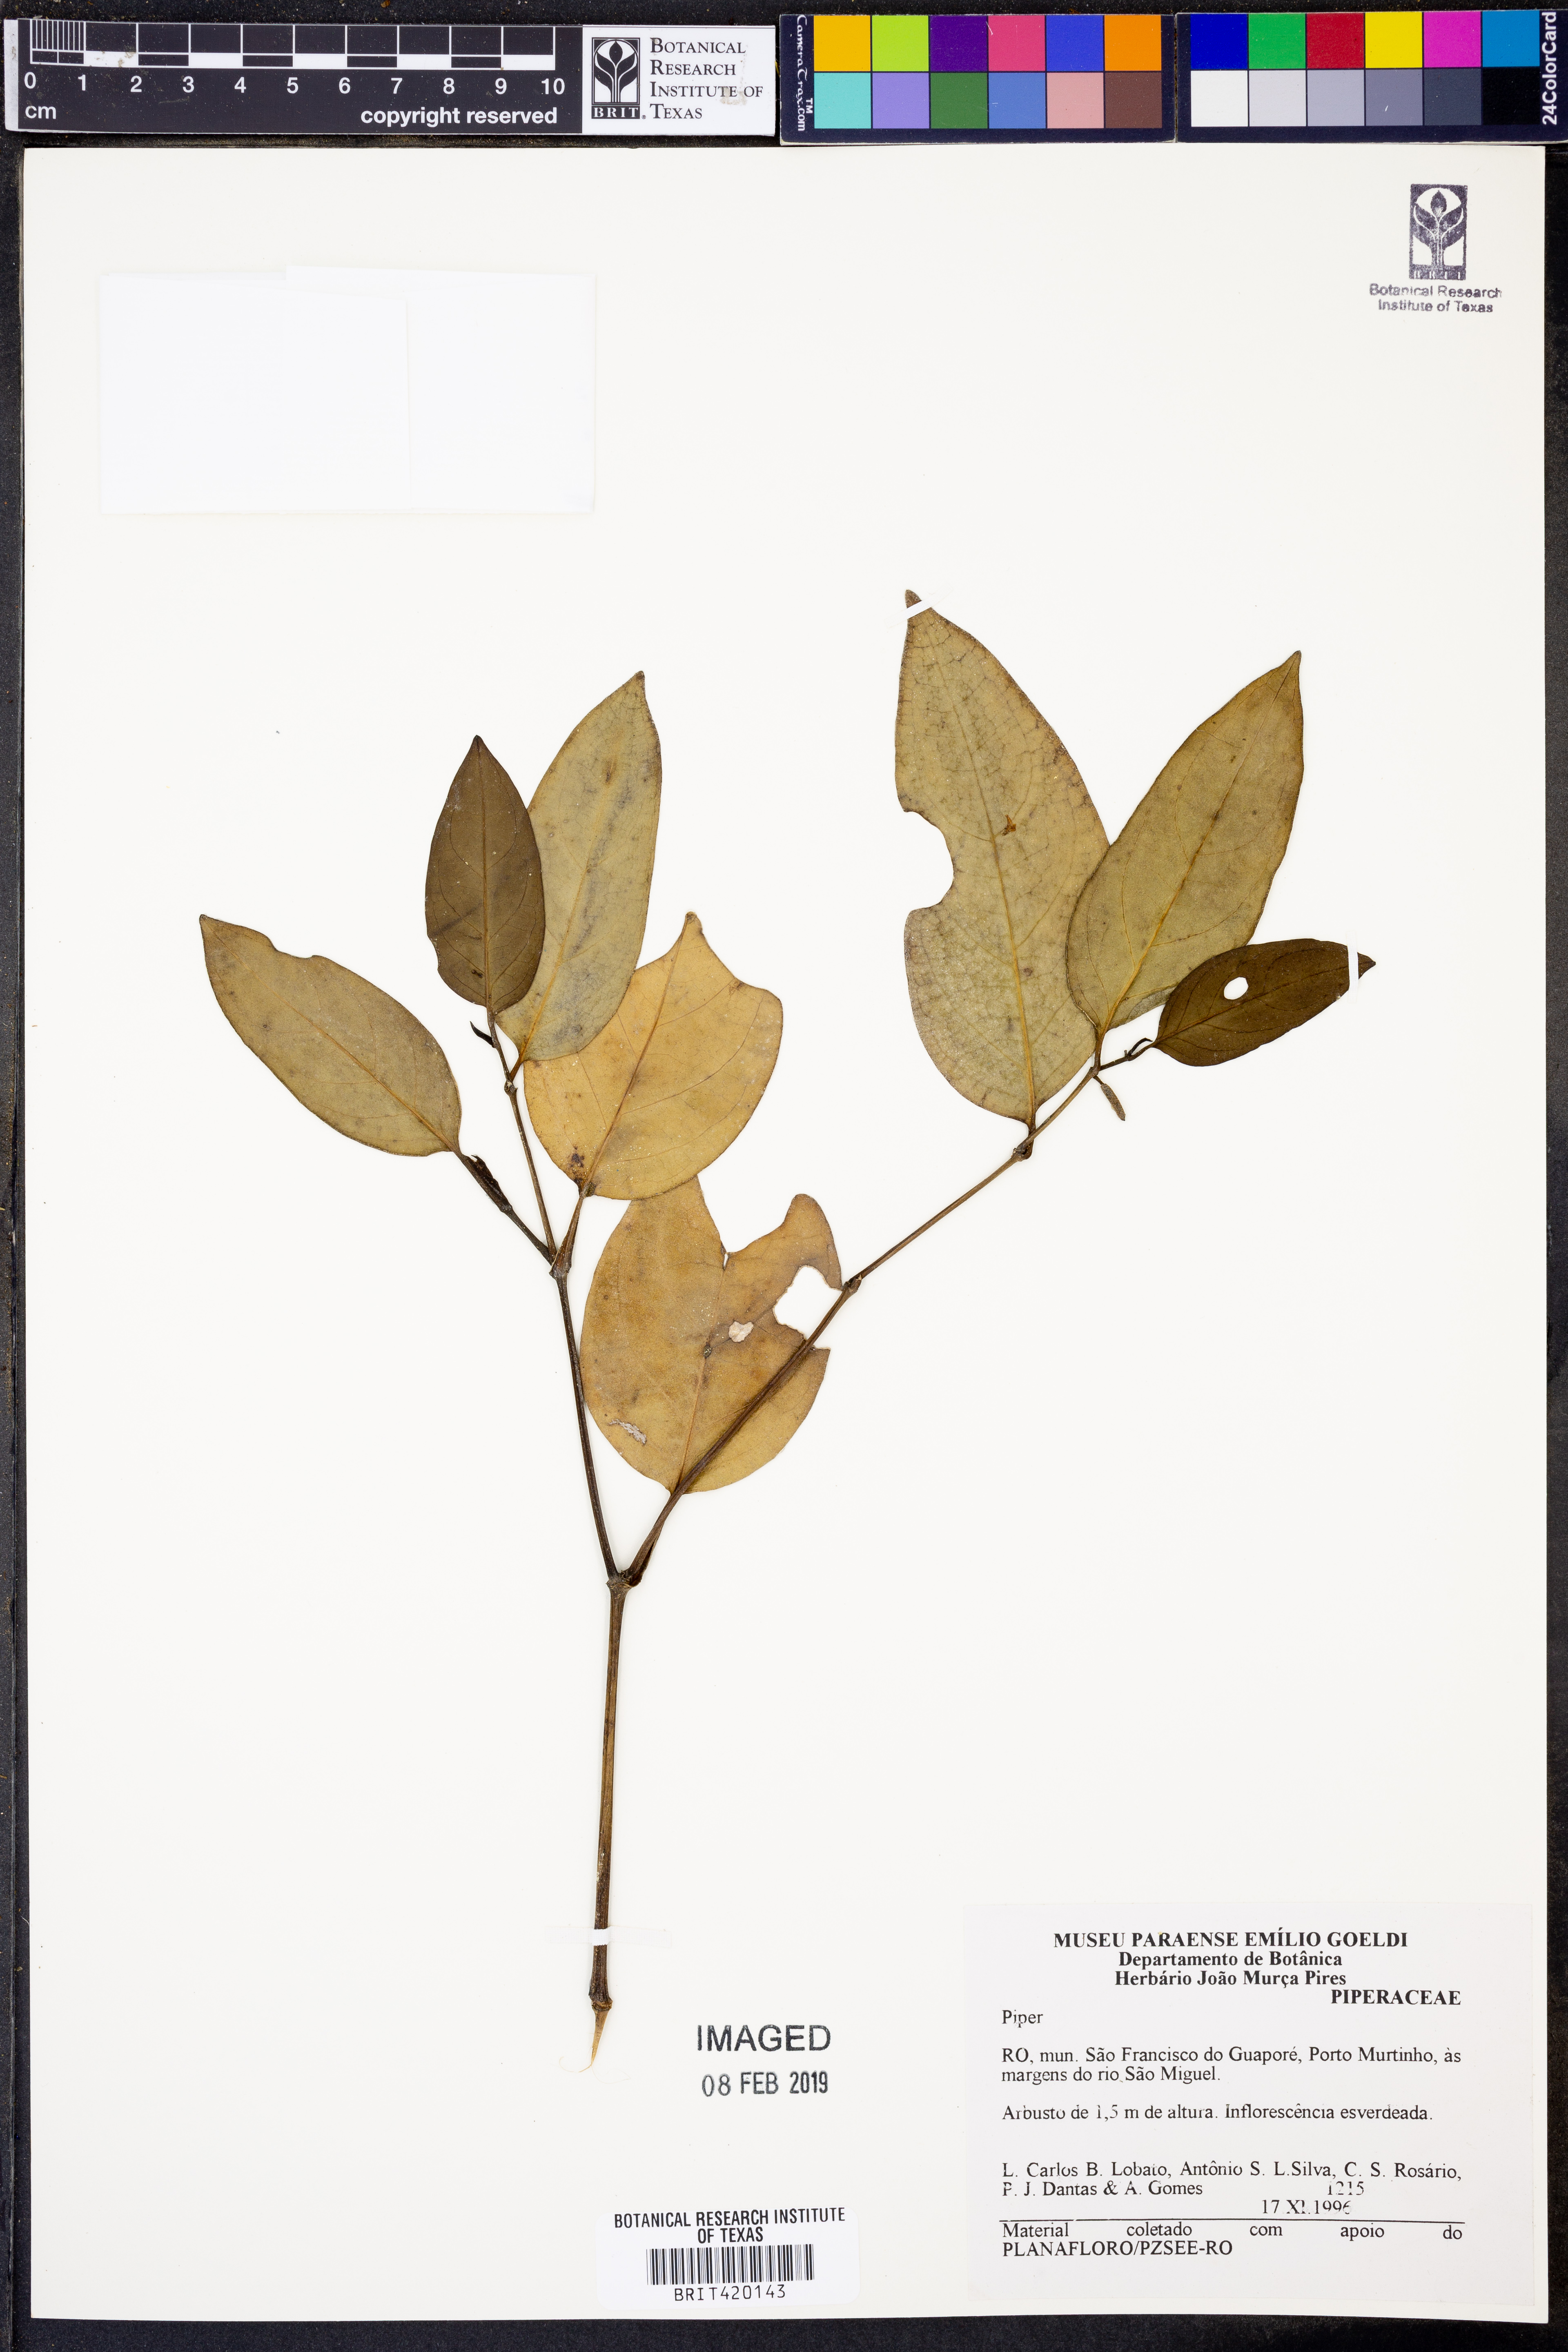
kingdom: Plantae
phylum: Tracheophyta
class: Magnoliopsida
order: Piperales
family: Piperaceae
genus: Piper
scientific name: Piper
